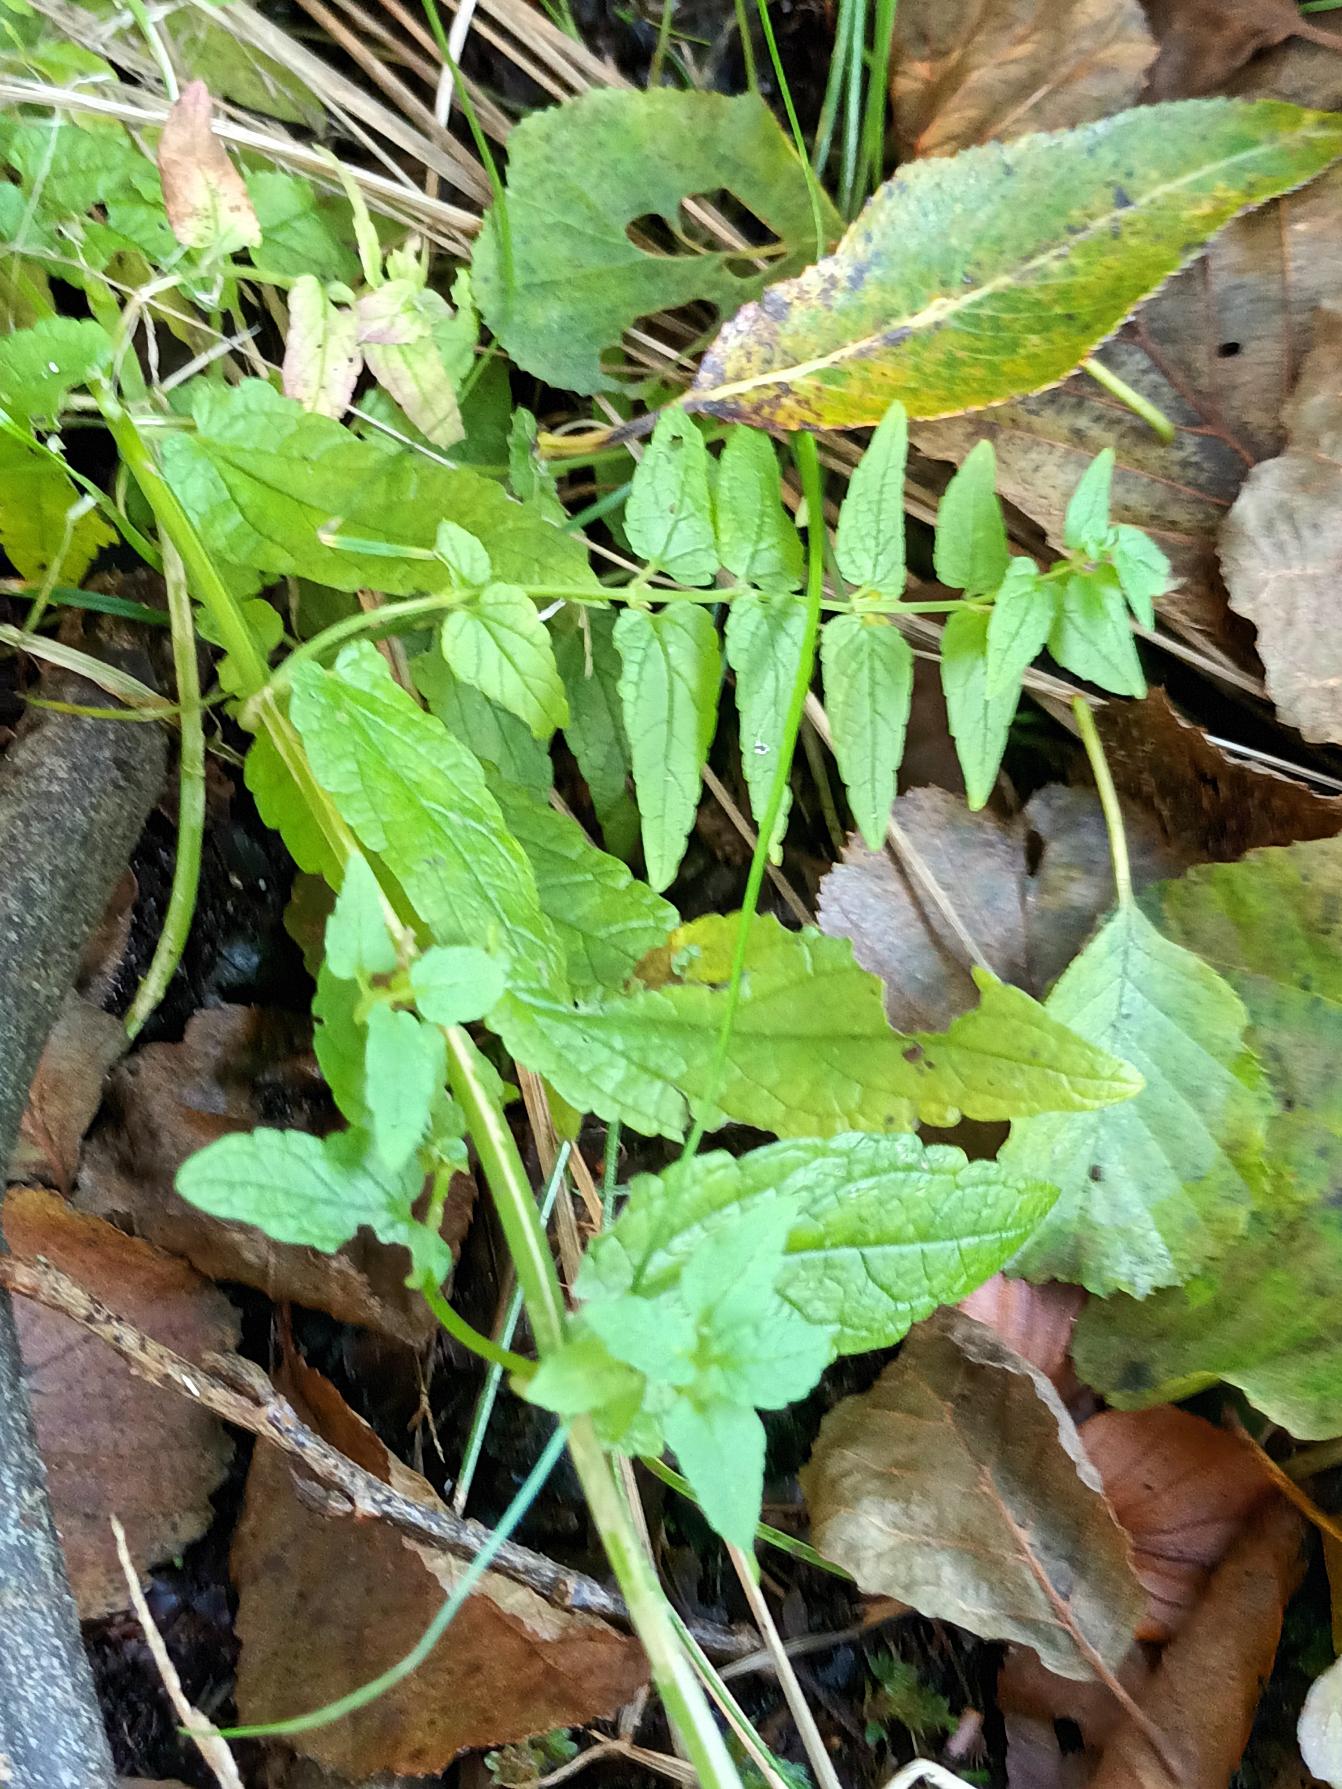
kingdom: Plantae
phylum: Tracheophyta
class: Magnoliopsida
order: Lamiales
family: Lamiaceae
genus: Scutellaria
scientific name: Scutellaria galericulata
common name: Almindelig skjolddrager
